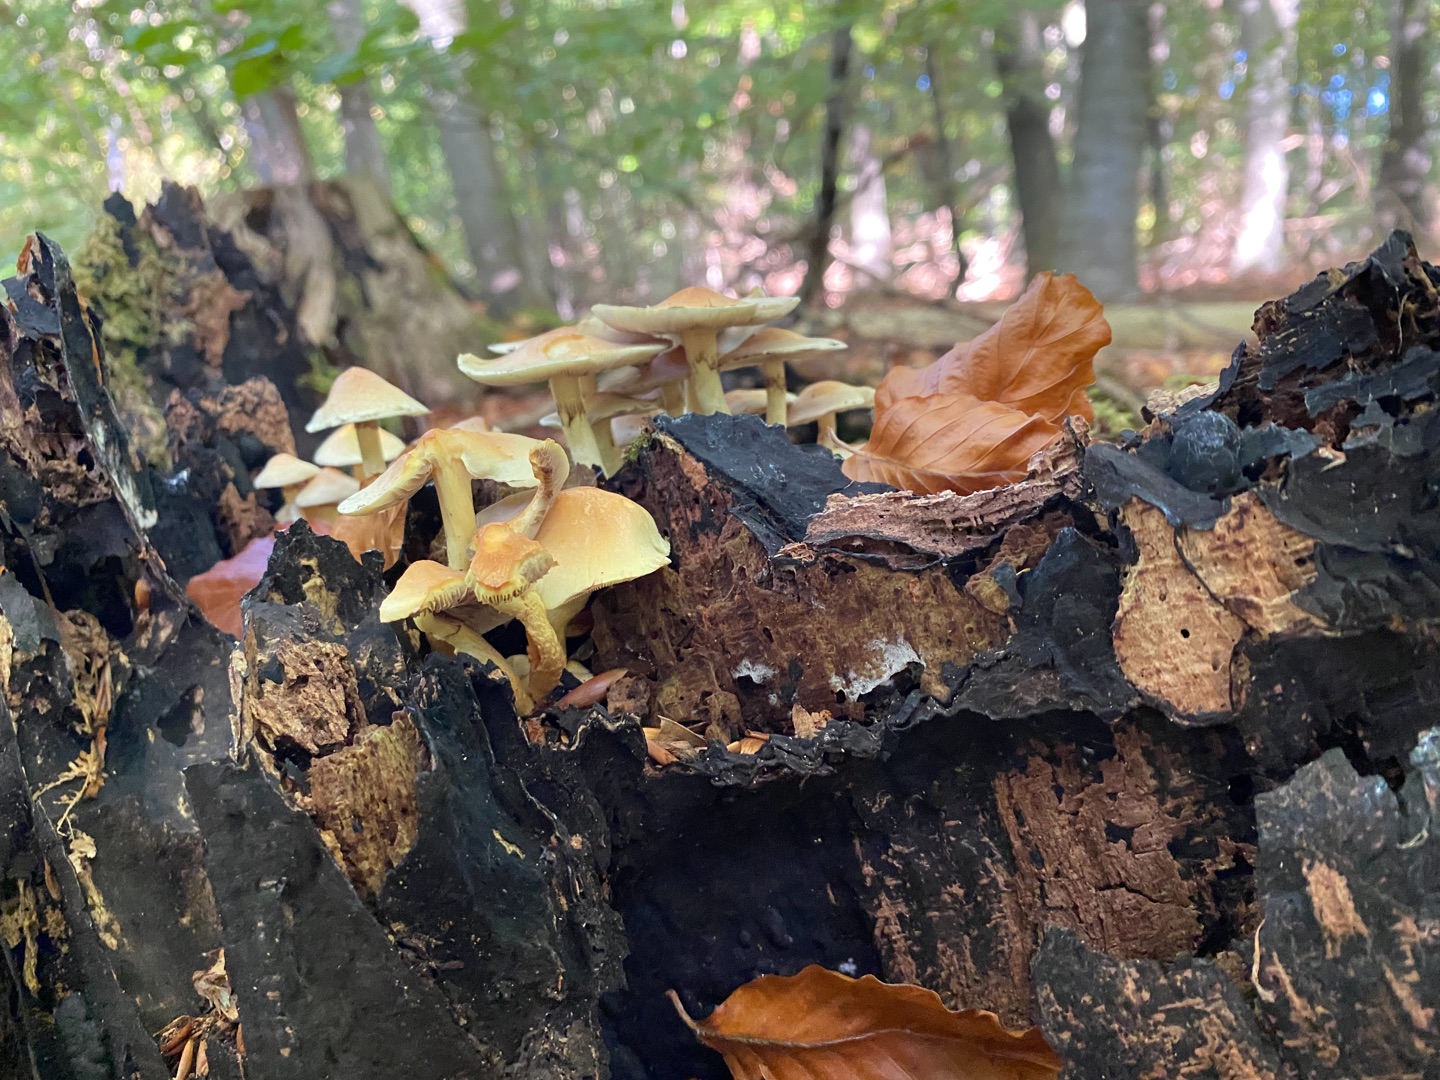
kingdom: Fungi
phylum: Basidiomycota
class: Agaricomycetes
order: Agaricales
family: Strophariaceae
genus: Hypholoma
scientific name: Hypholoma fasciculare
